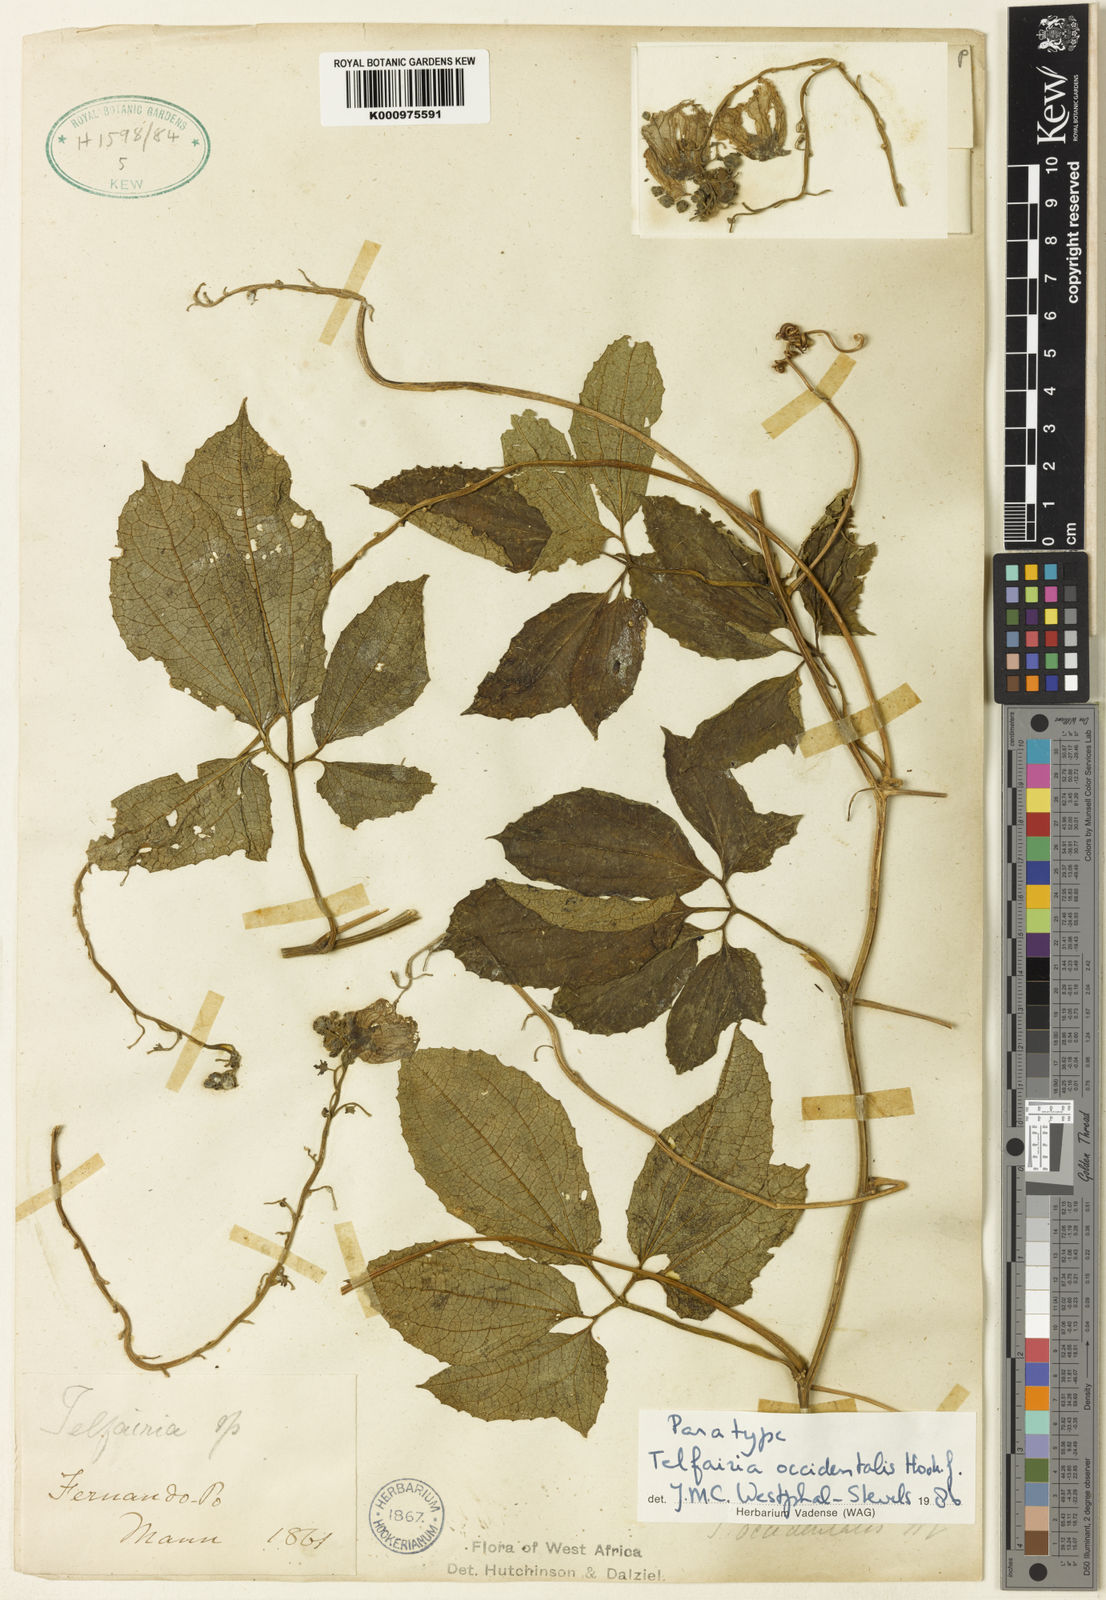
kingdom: Plantae
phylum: Tracheophyta
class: Magnoliopsida
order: Cucurbitales
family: Cucurbitaceae
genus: Telfairia
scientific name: Telfairia occidentalis
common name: Oysternut
